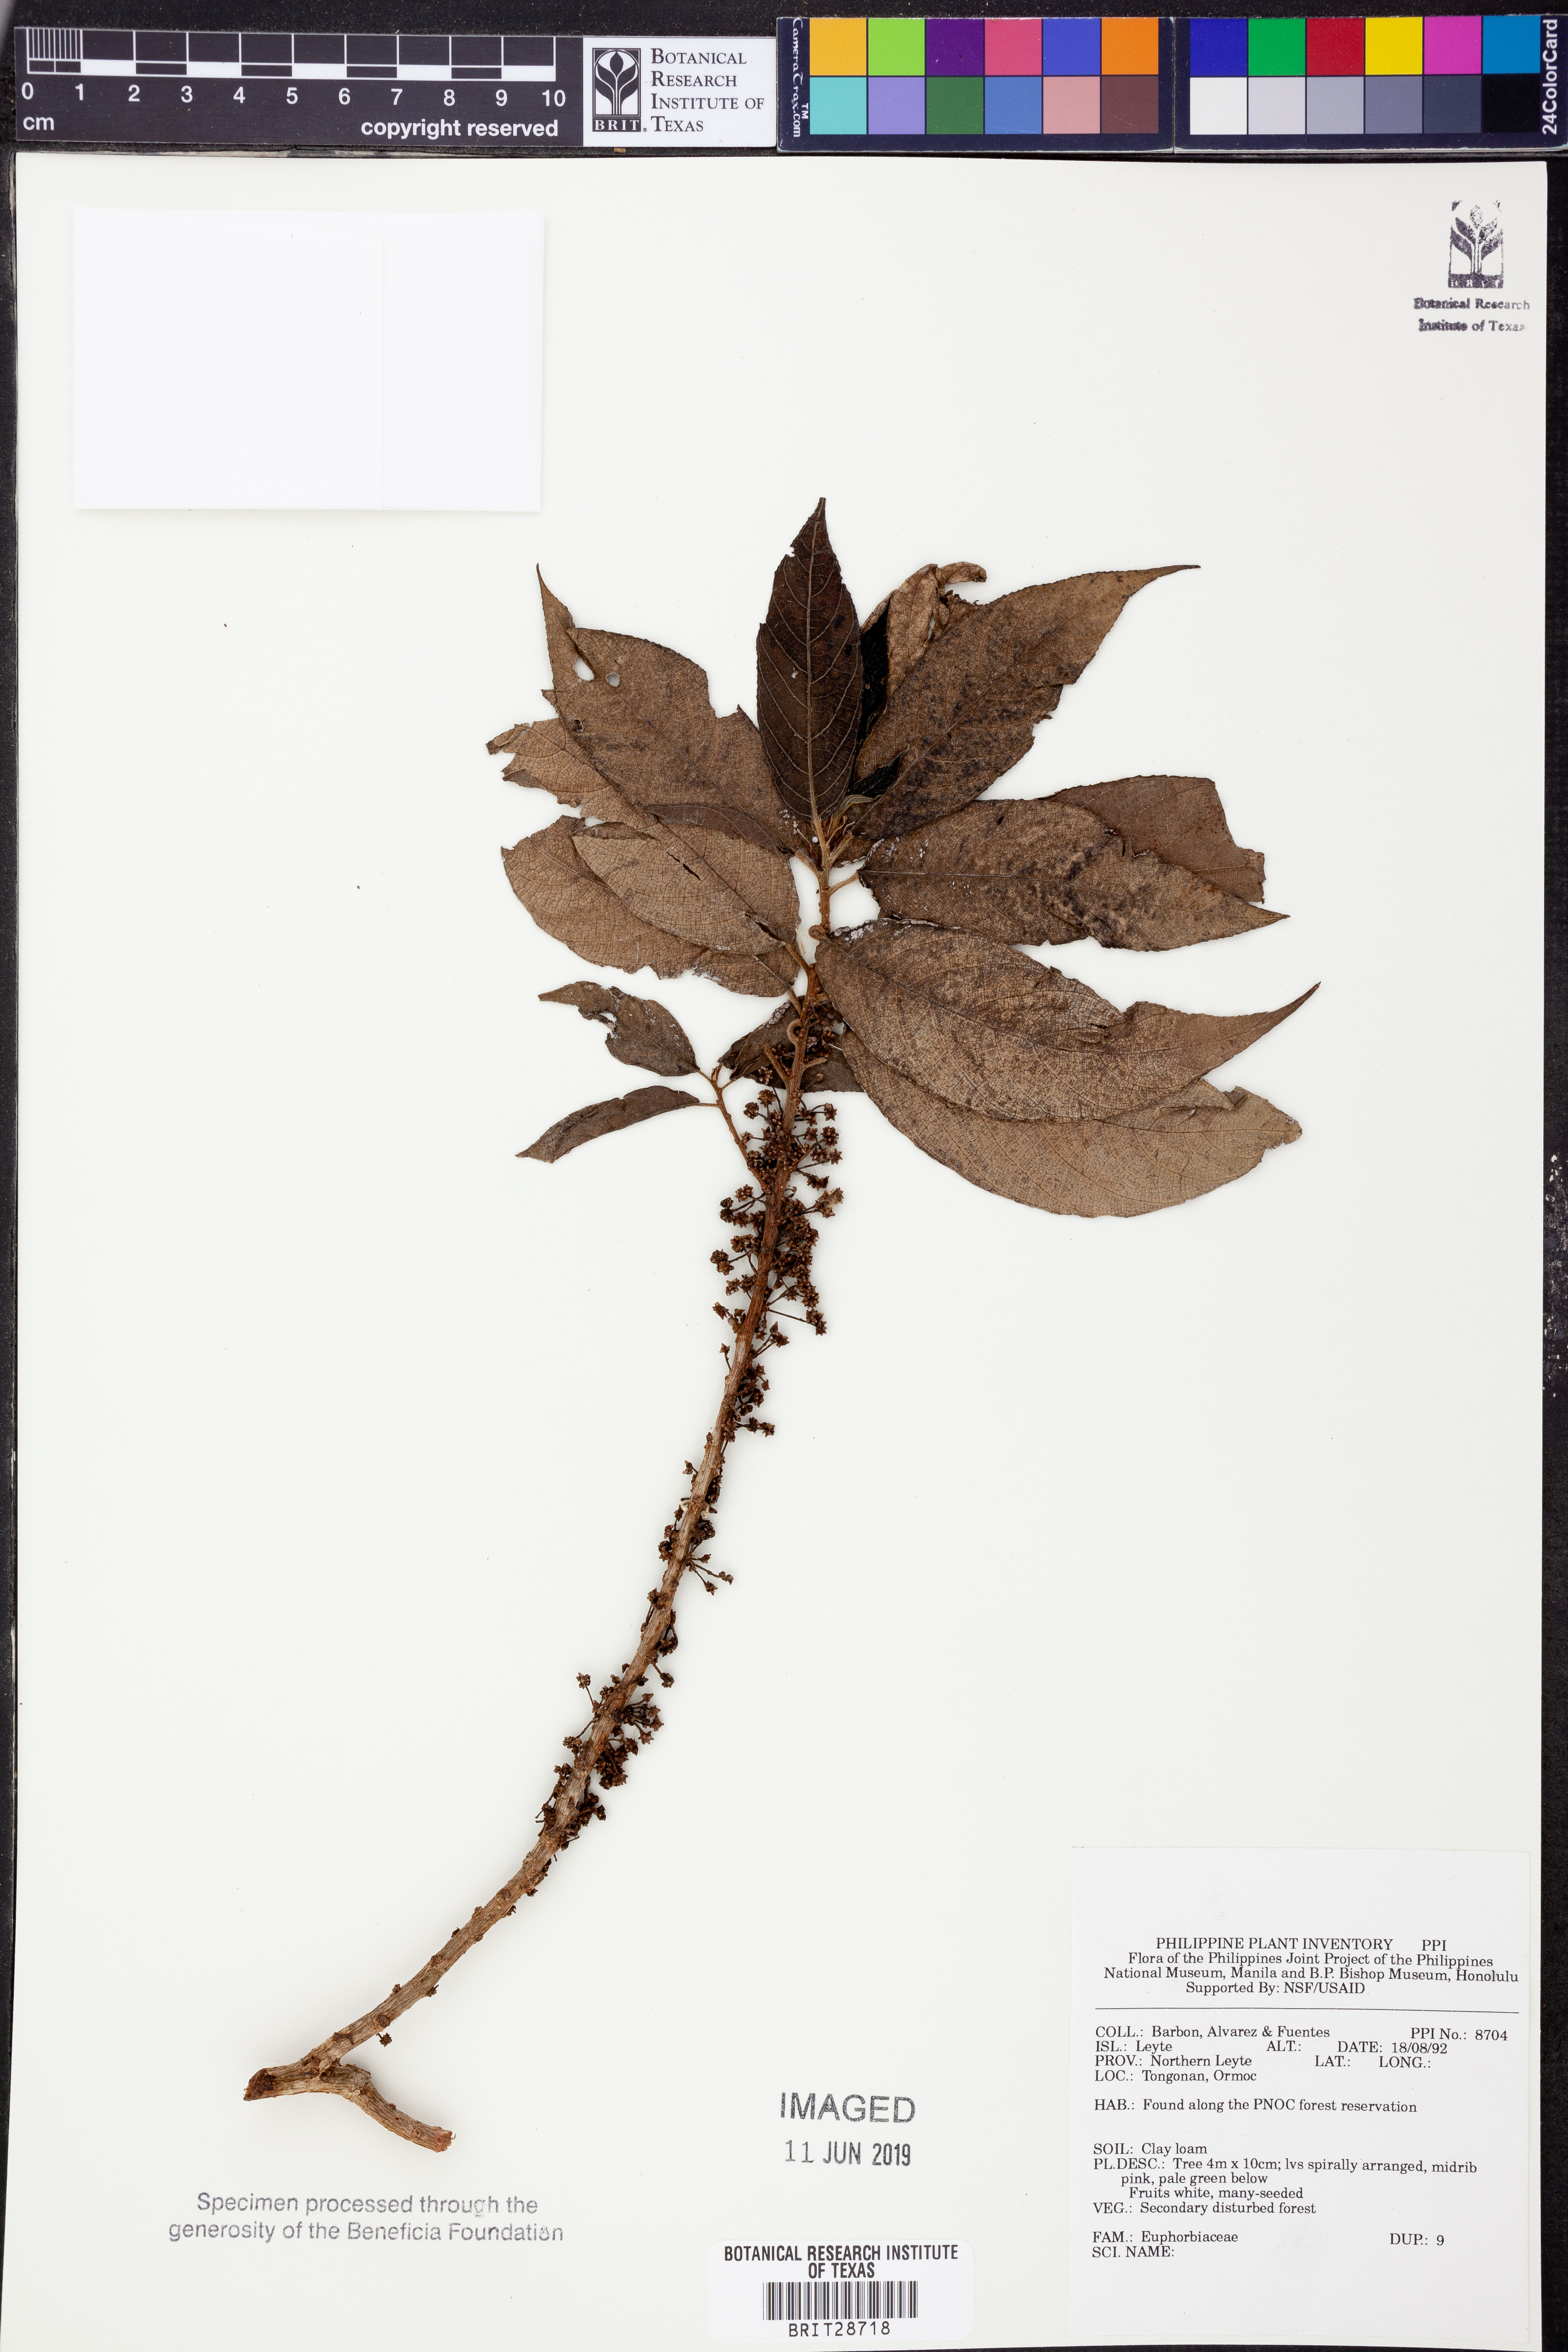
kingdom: Plantae
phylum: Tracheophyta
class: Magnoliopsida
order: Malpighiales
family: Euphorbiaceae
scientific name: Euphorbiaceae
